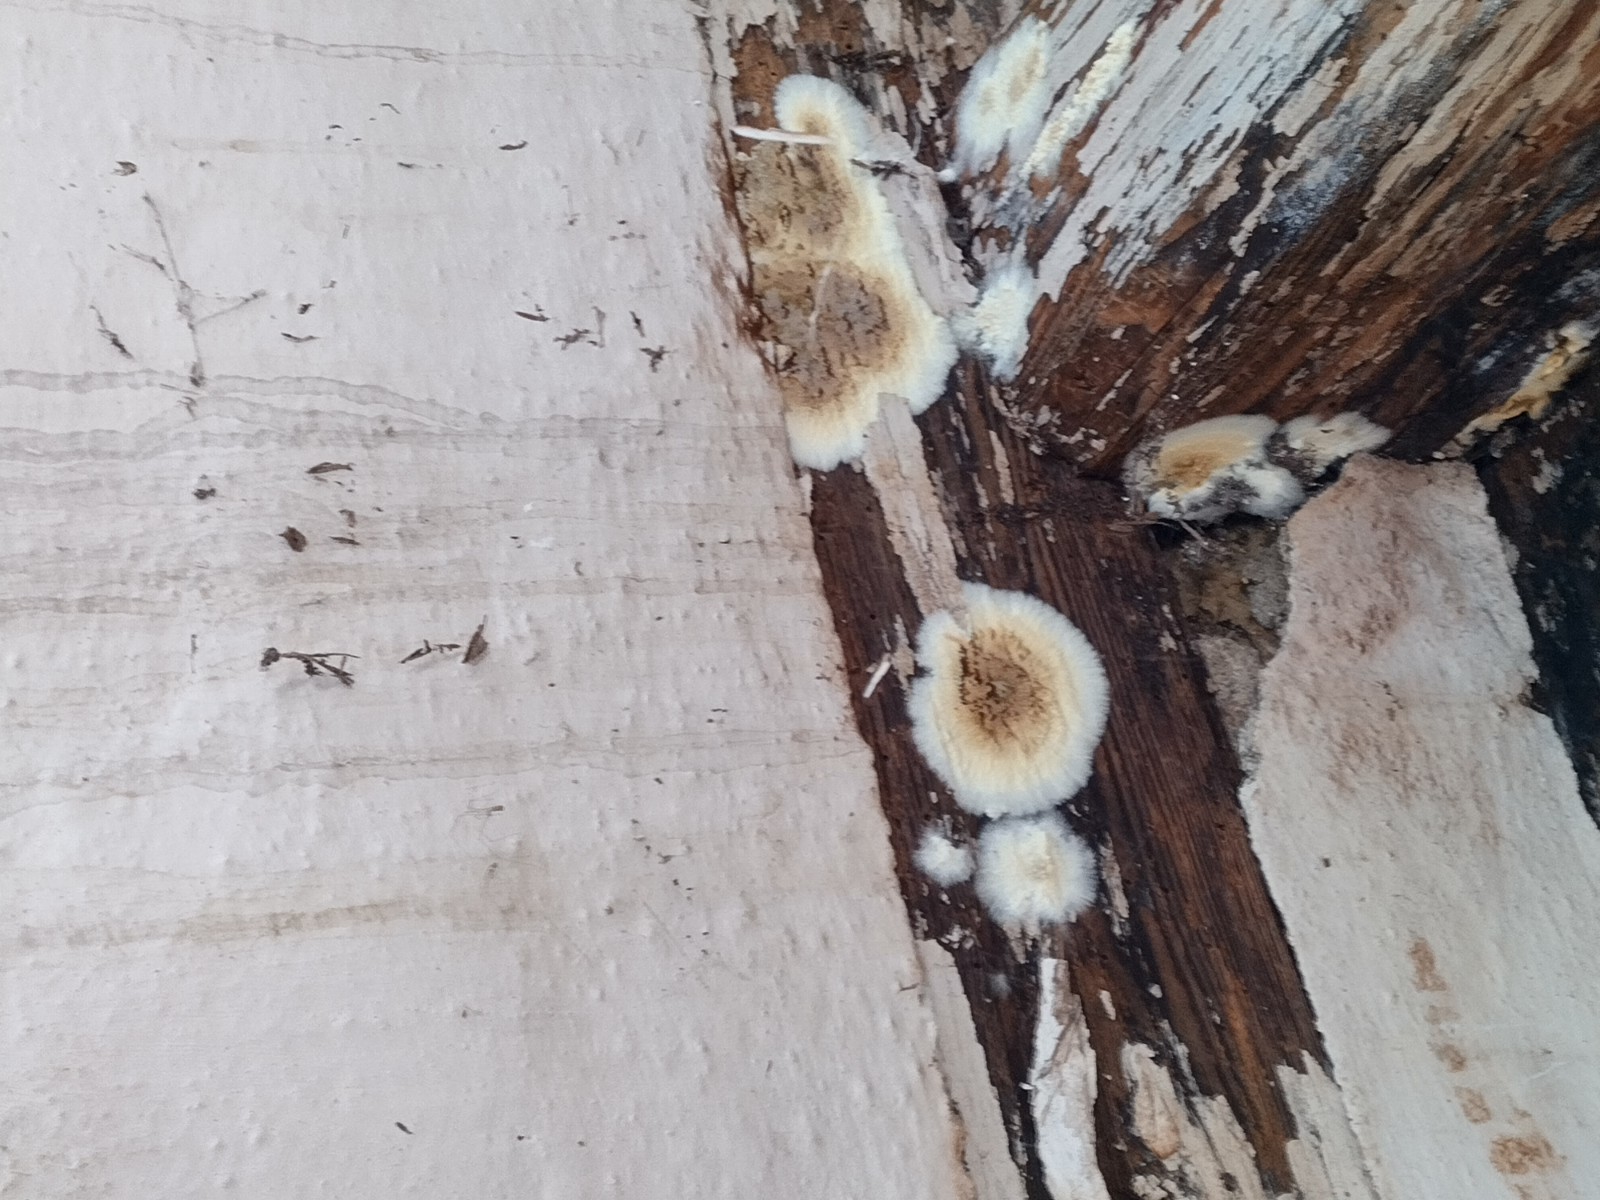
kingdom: Fungi
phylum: Basidiomycota
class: Agaricomycetes
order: Boletales
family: Coniophoraceae
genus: Coniophora
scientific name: Coniophora
